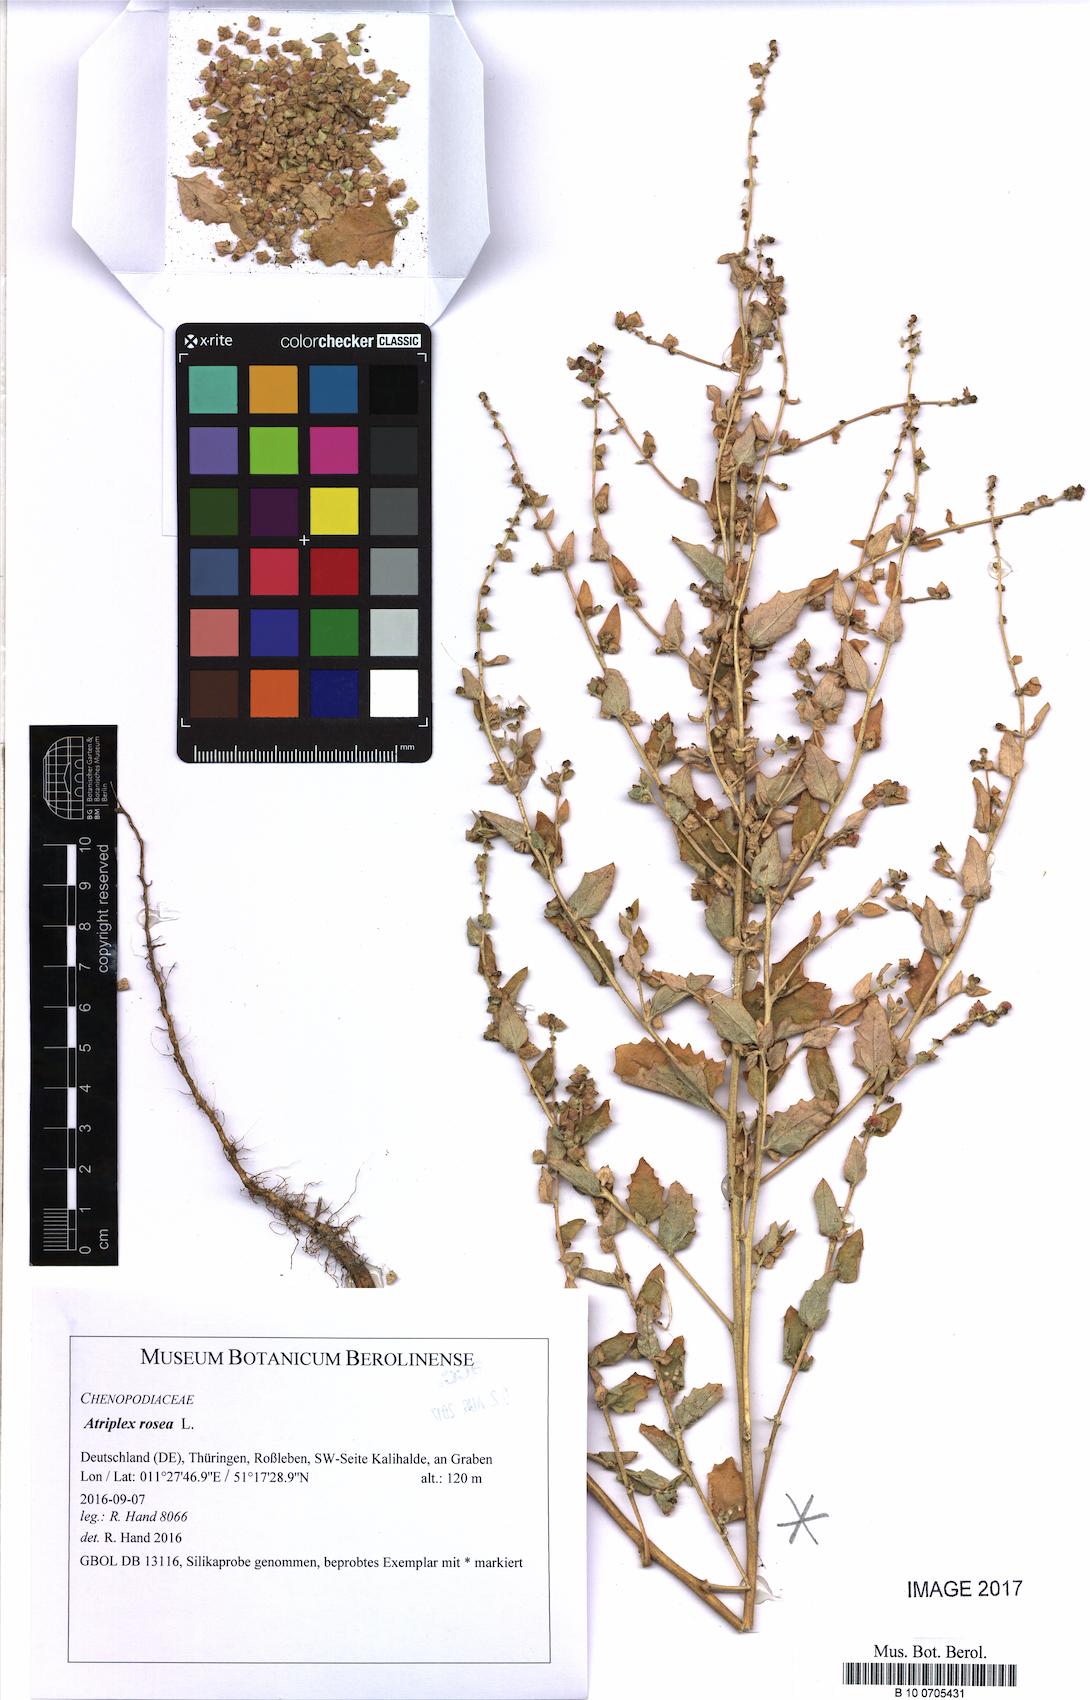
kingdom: Plantae
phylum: Tracheophyta
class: Magnoliopsida
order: Caryophyllales
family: Amaranthaceae
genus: Atriplex
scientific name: Atriplex rosea
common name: Tumbling saltweed
